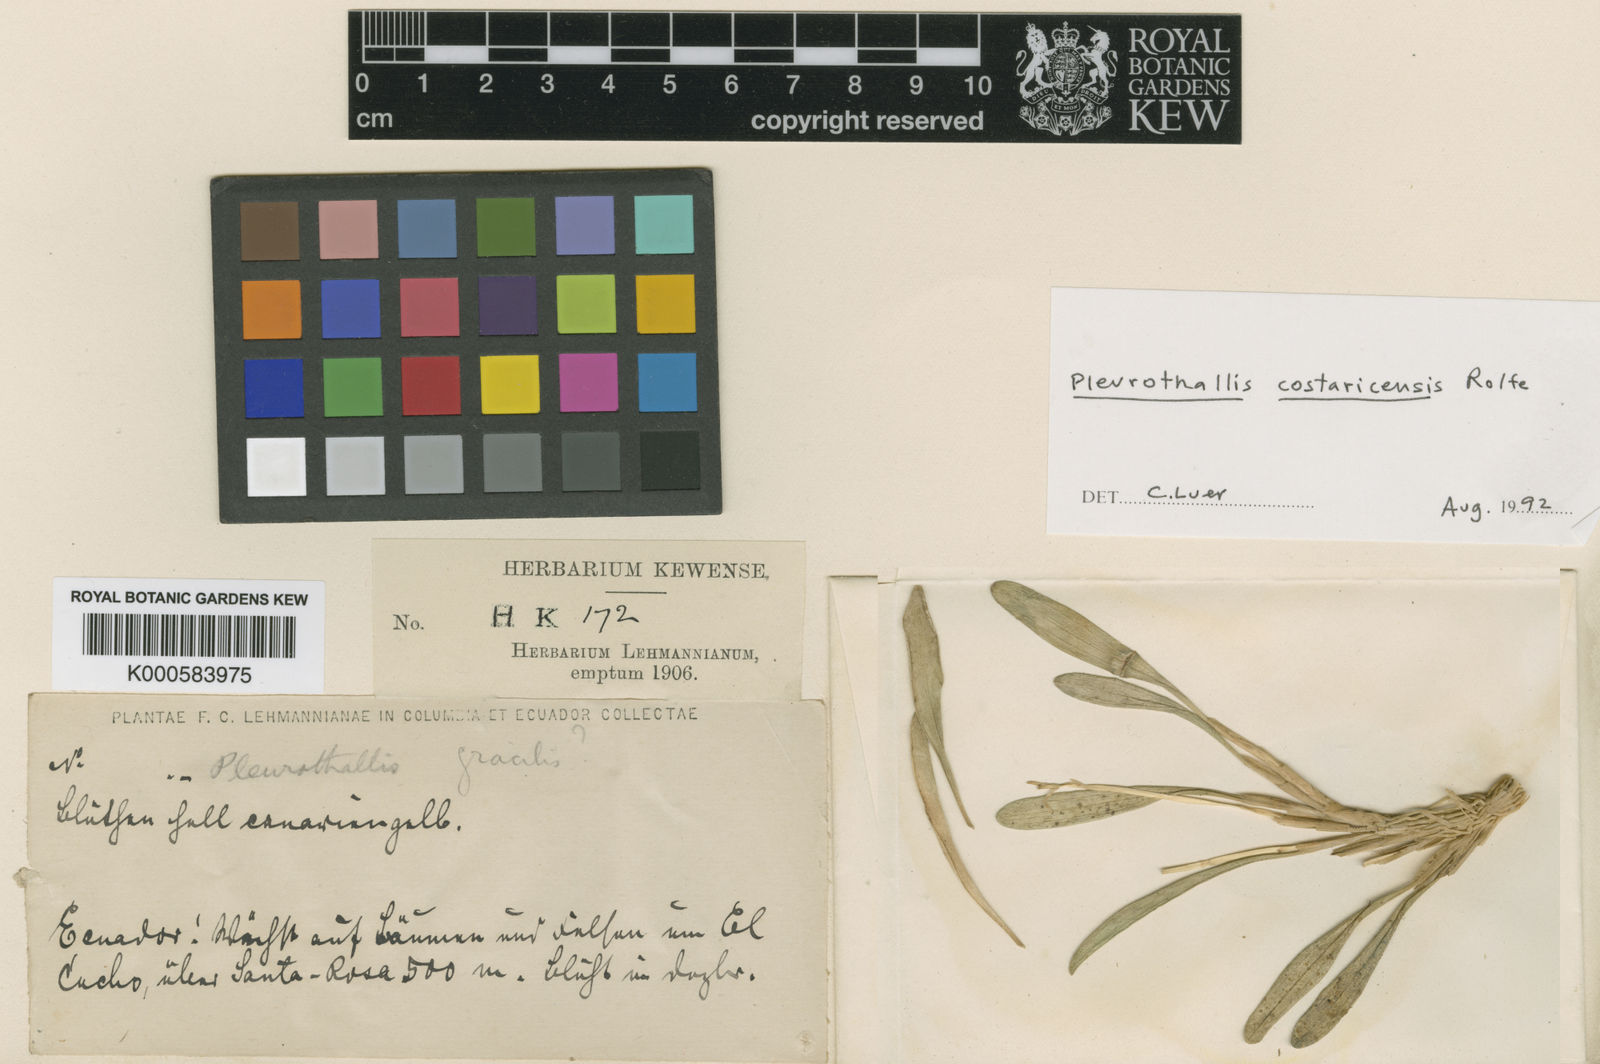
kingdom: Plantae
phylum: Tracheophyta
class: Liliopsida
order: Asparagales
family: Orchidaceae
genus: Specklinia
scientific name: Specklinia costaricensis
